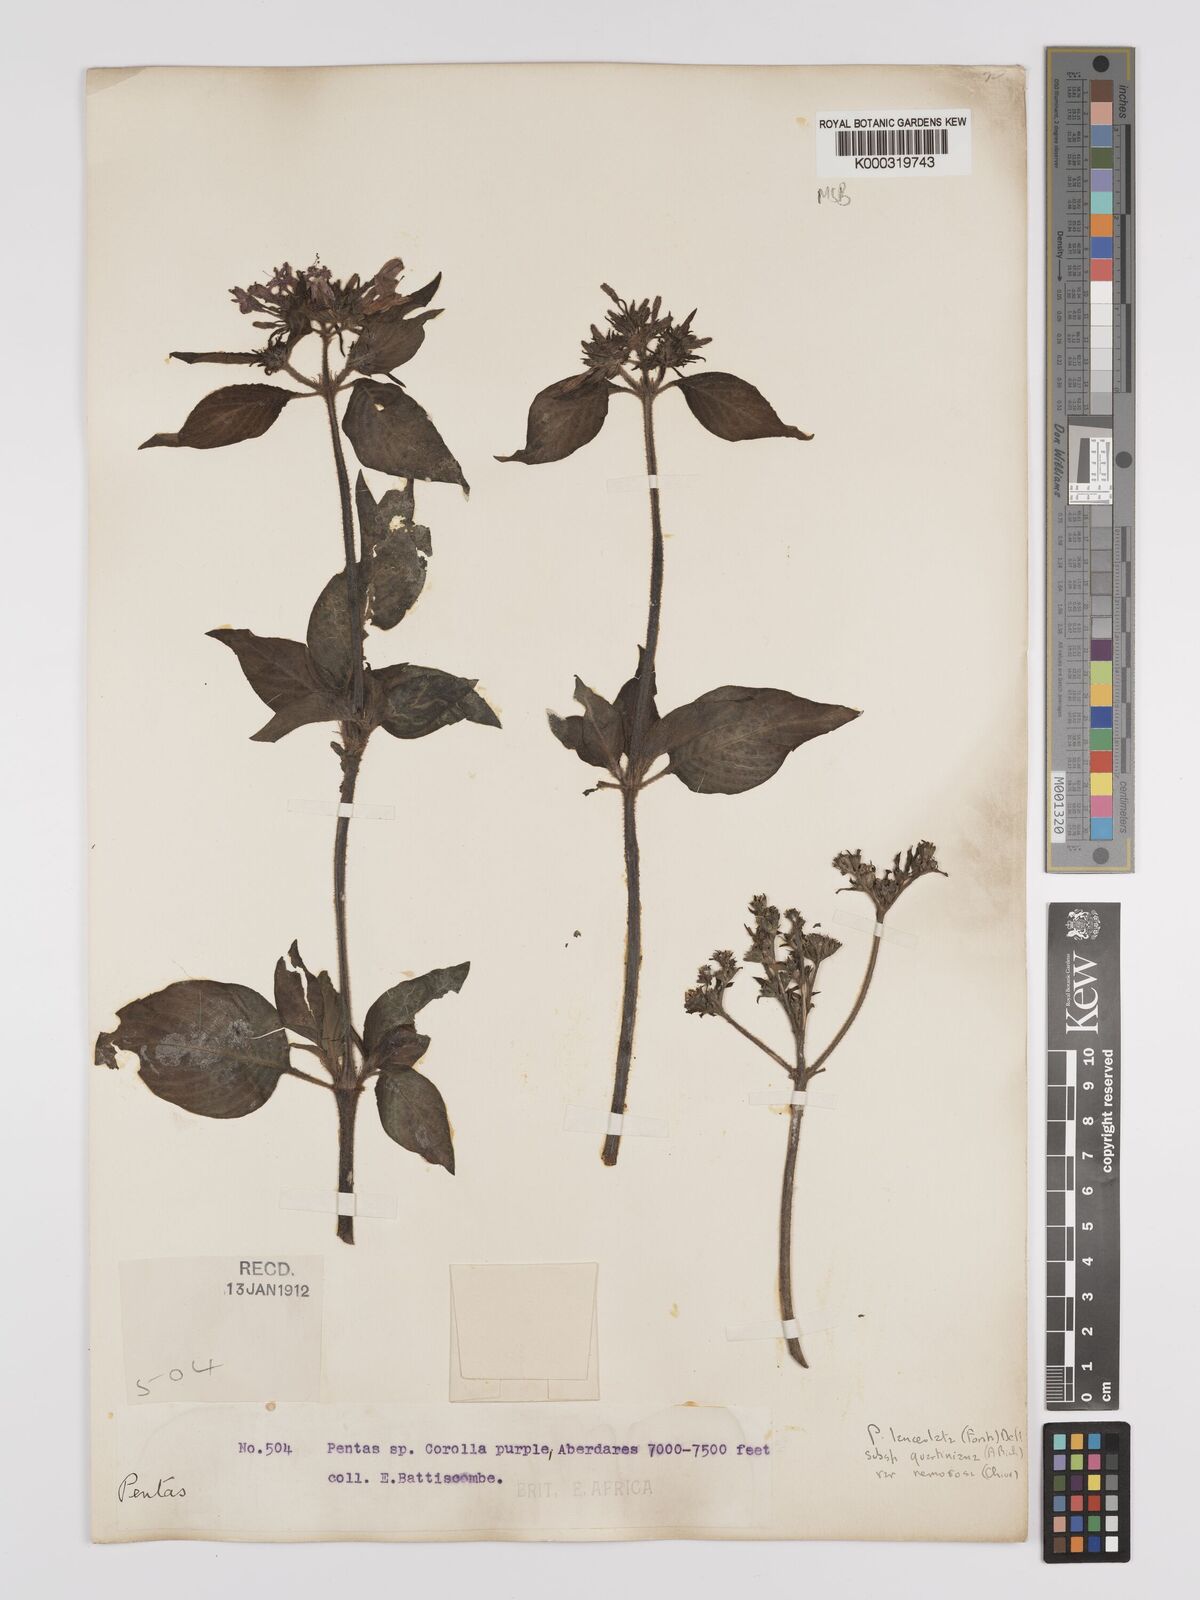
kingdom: Plantae
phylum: Tracheophyta
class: Magnoliopsida
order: Gentianales
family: Rubiaceae
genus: Pentas
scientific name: Pentas lanceolata
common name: Egyptian starcluster
